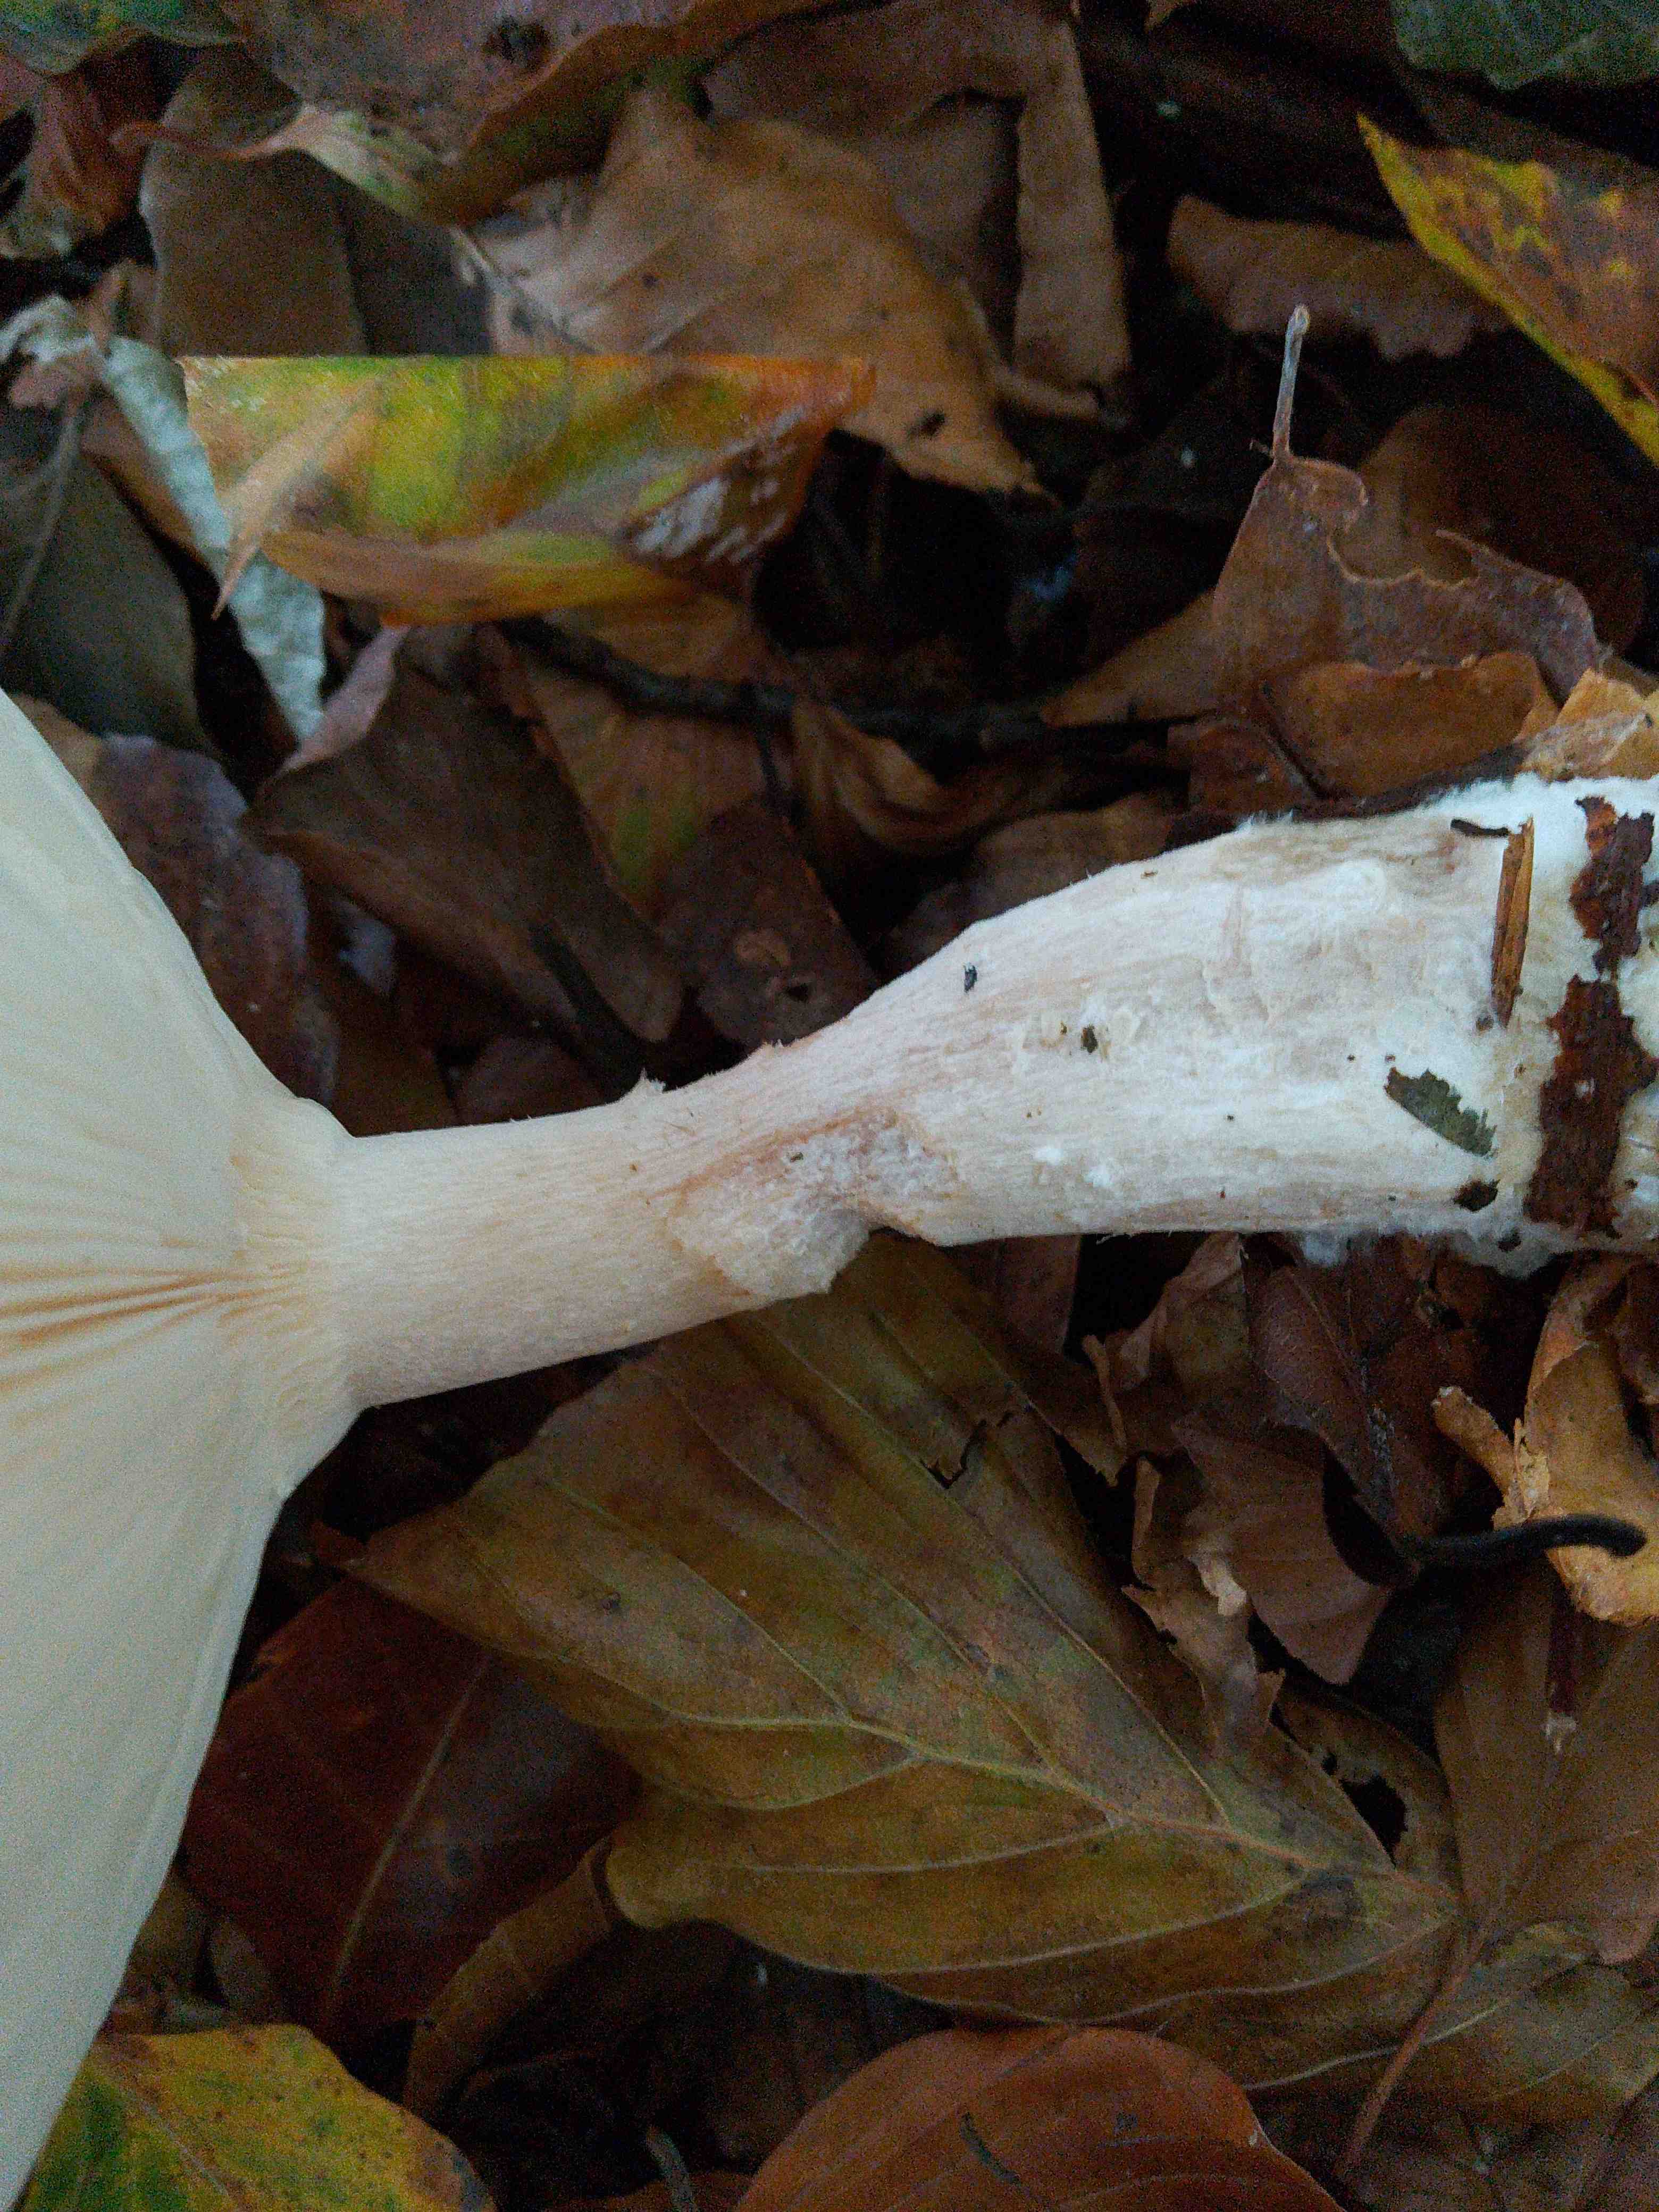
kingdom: Fungi
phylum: Basidiomycota
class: Agaricomycetes
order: Agaricales
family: Tricholomataceae
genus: Clitocybe
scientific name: Clitocybe nebularis
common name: tåge-tragthat
